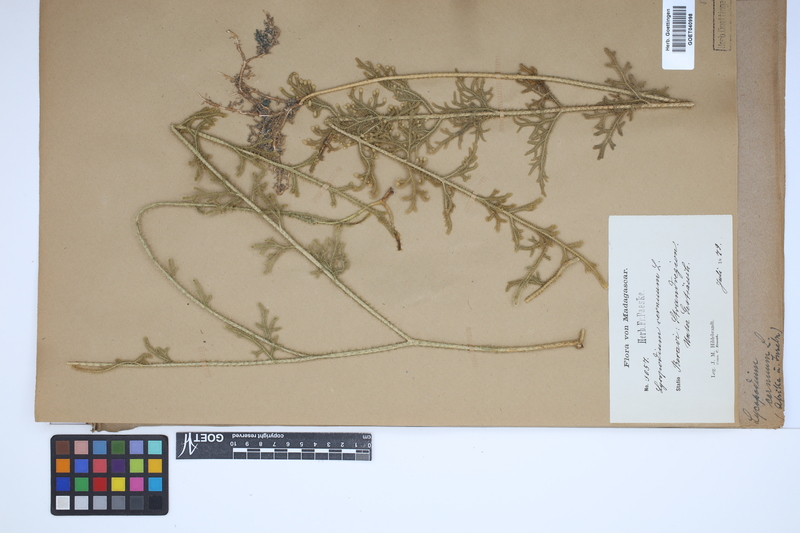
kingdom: Plantae
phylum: Tracheophyta
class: Lycopodiopsida
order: Lycopodiales
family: Lycopodiaceae
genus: Palhinhaea
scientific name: Palhinhaea cernua
